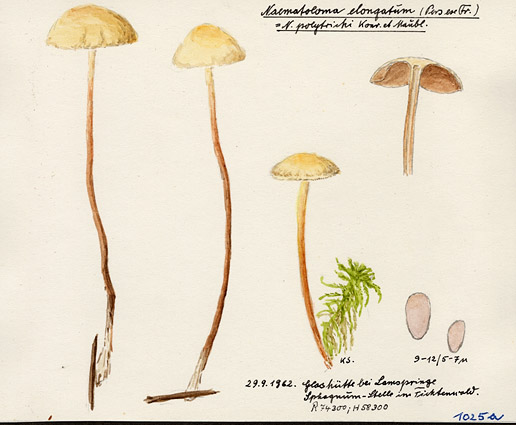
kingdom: Fungi
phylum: Basidiomycota
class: Agaricomycetes
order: Agaricales
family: Strophariaceae
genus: Hypholoma
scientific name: Hypholoma elongatum
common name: Sphagnum brownie
